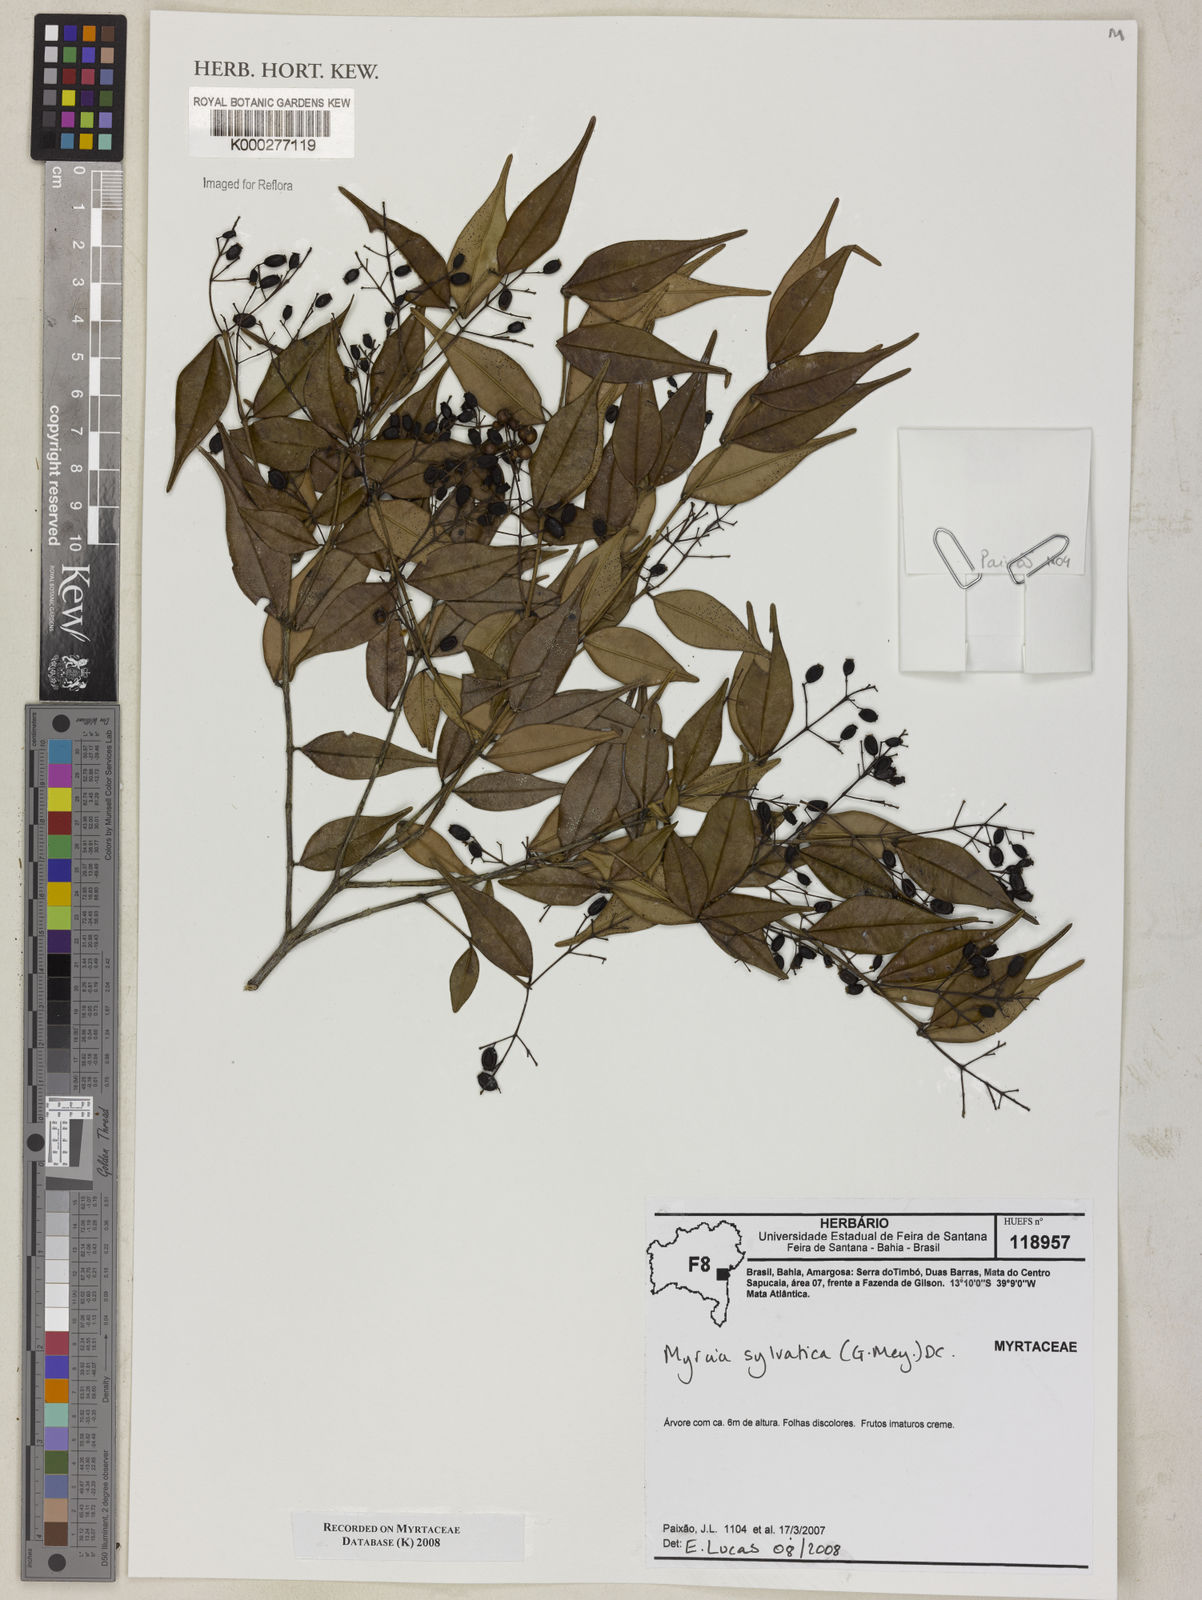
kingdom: Plantae
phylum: Tracheophyta
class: Magnoliopsida
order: Myrtales
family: Myrtaceae
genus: Myrcia
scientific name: Myrcia sylvatica
